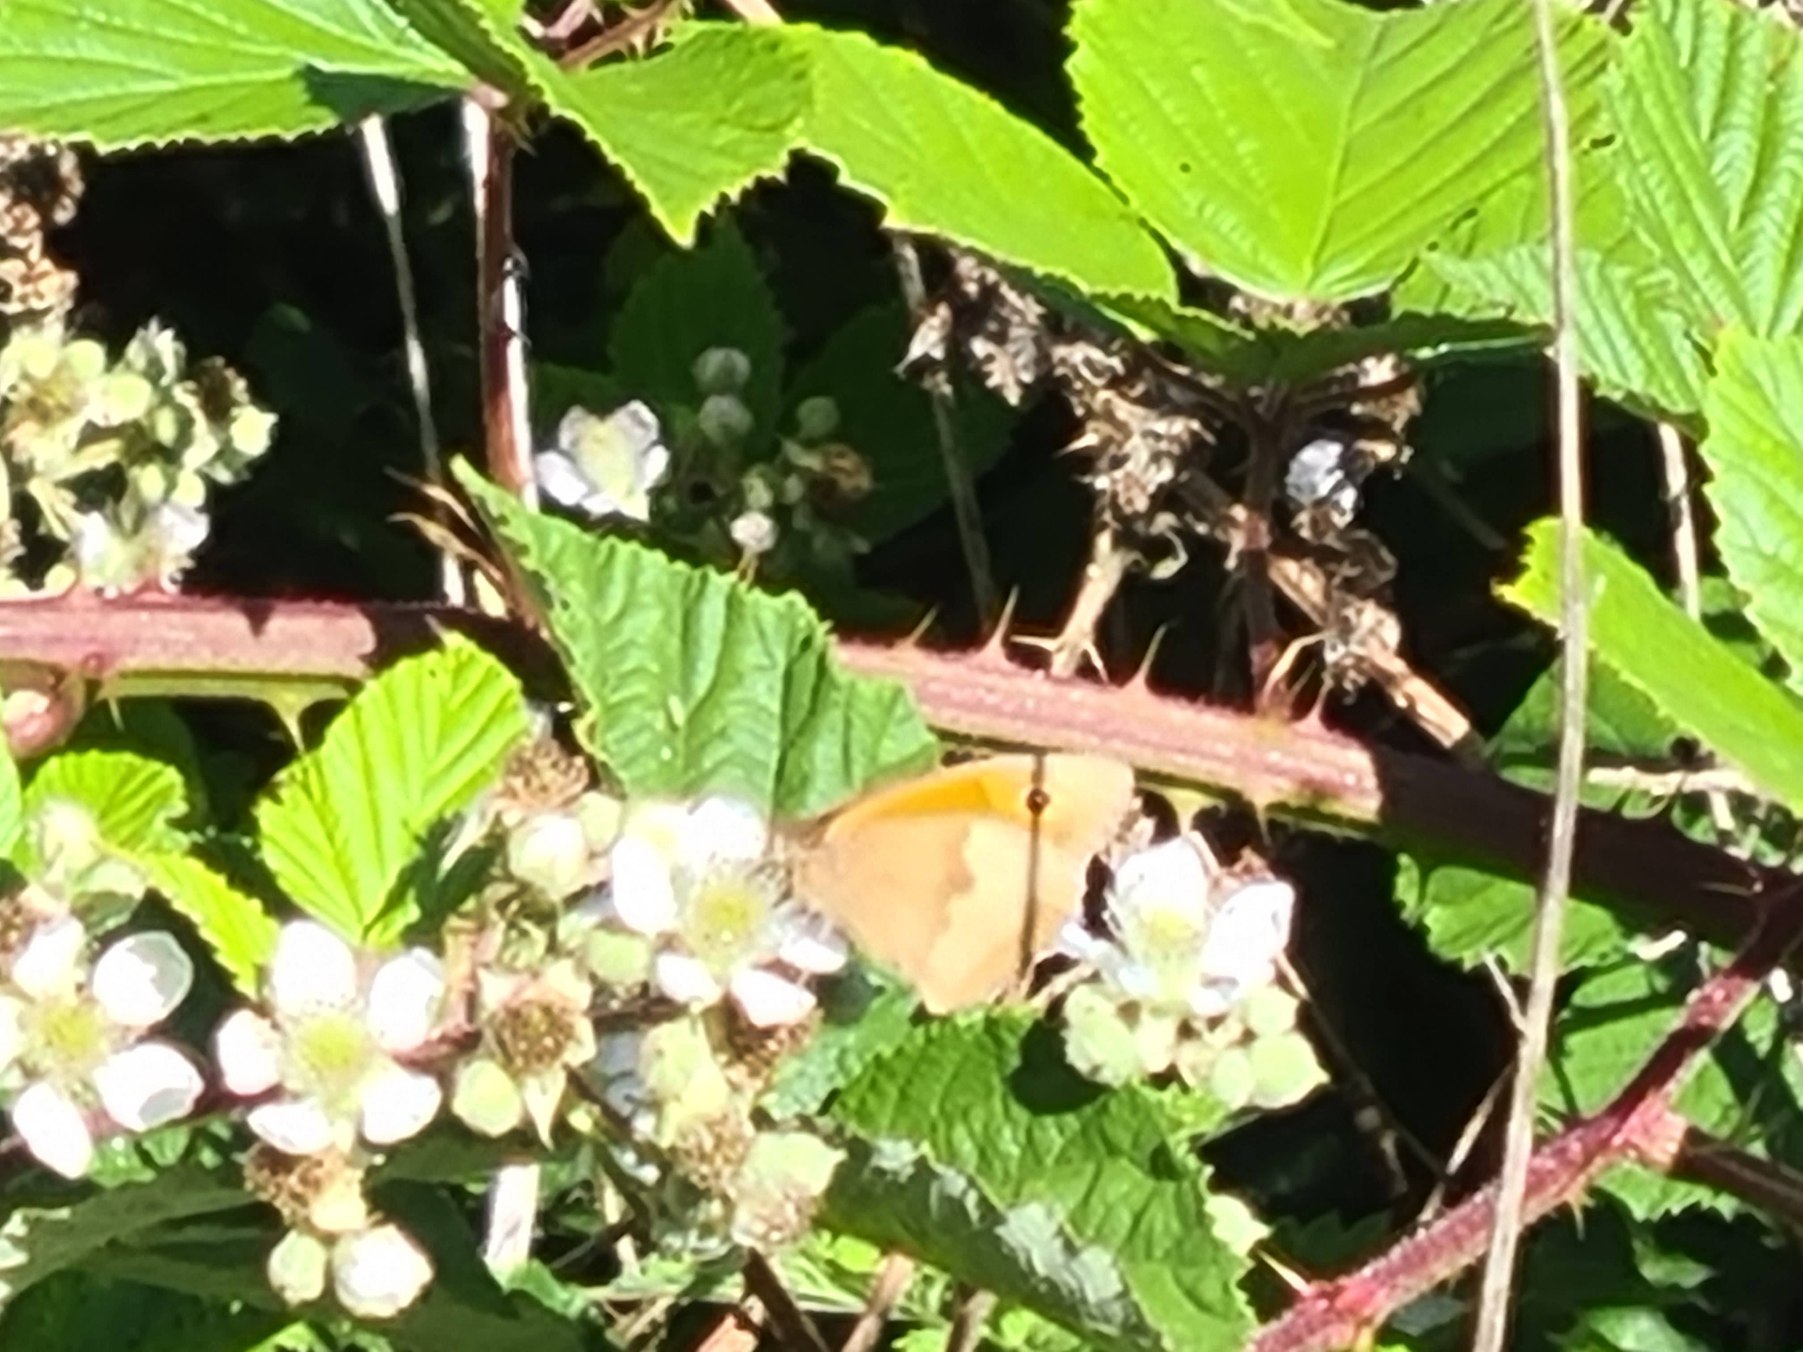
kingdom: Animalia
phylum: Arthropoda
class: Insecta
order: Lepidoptera
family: Nymphalidae
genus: Maniola
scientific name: Maniola jurtina
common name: Græsrandøje
